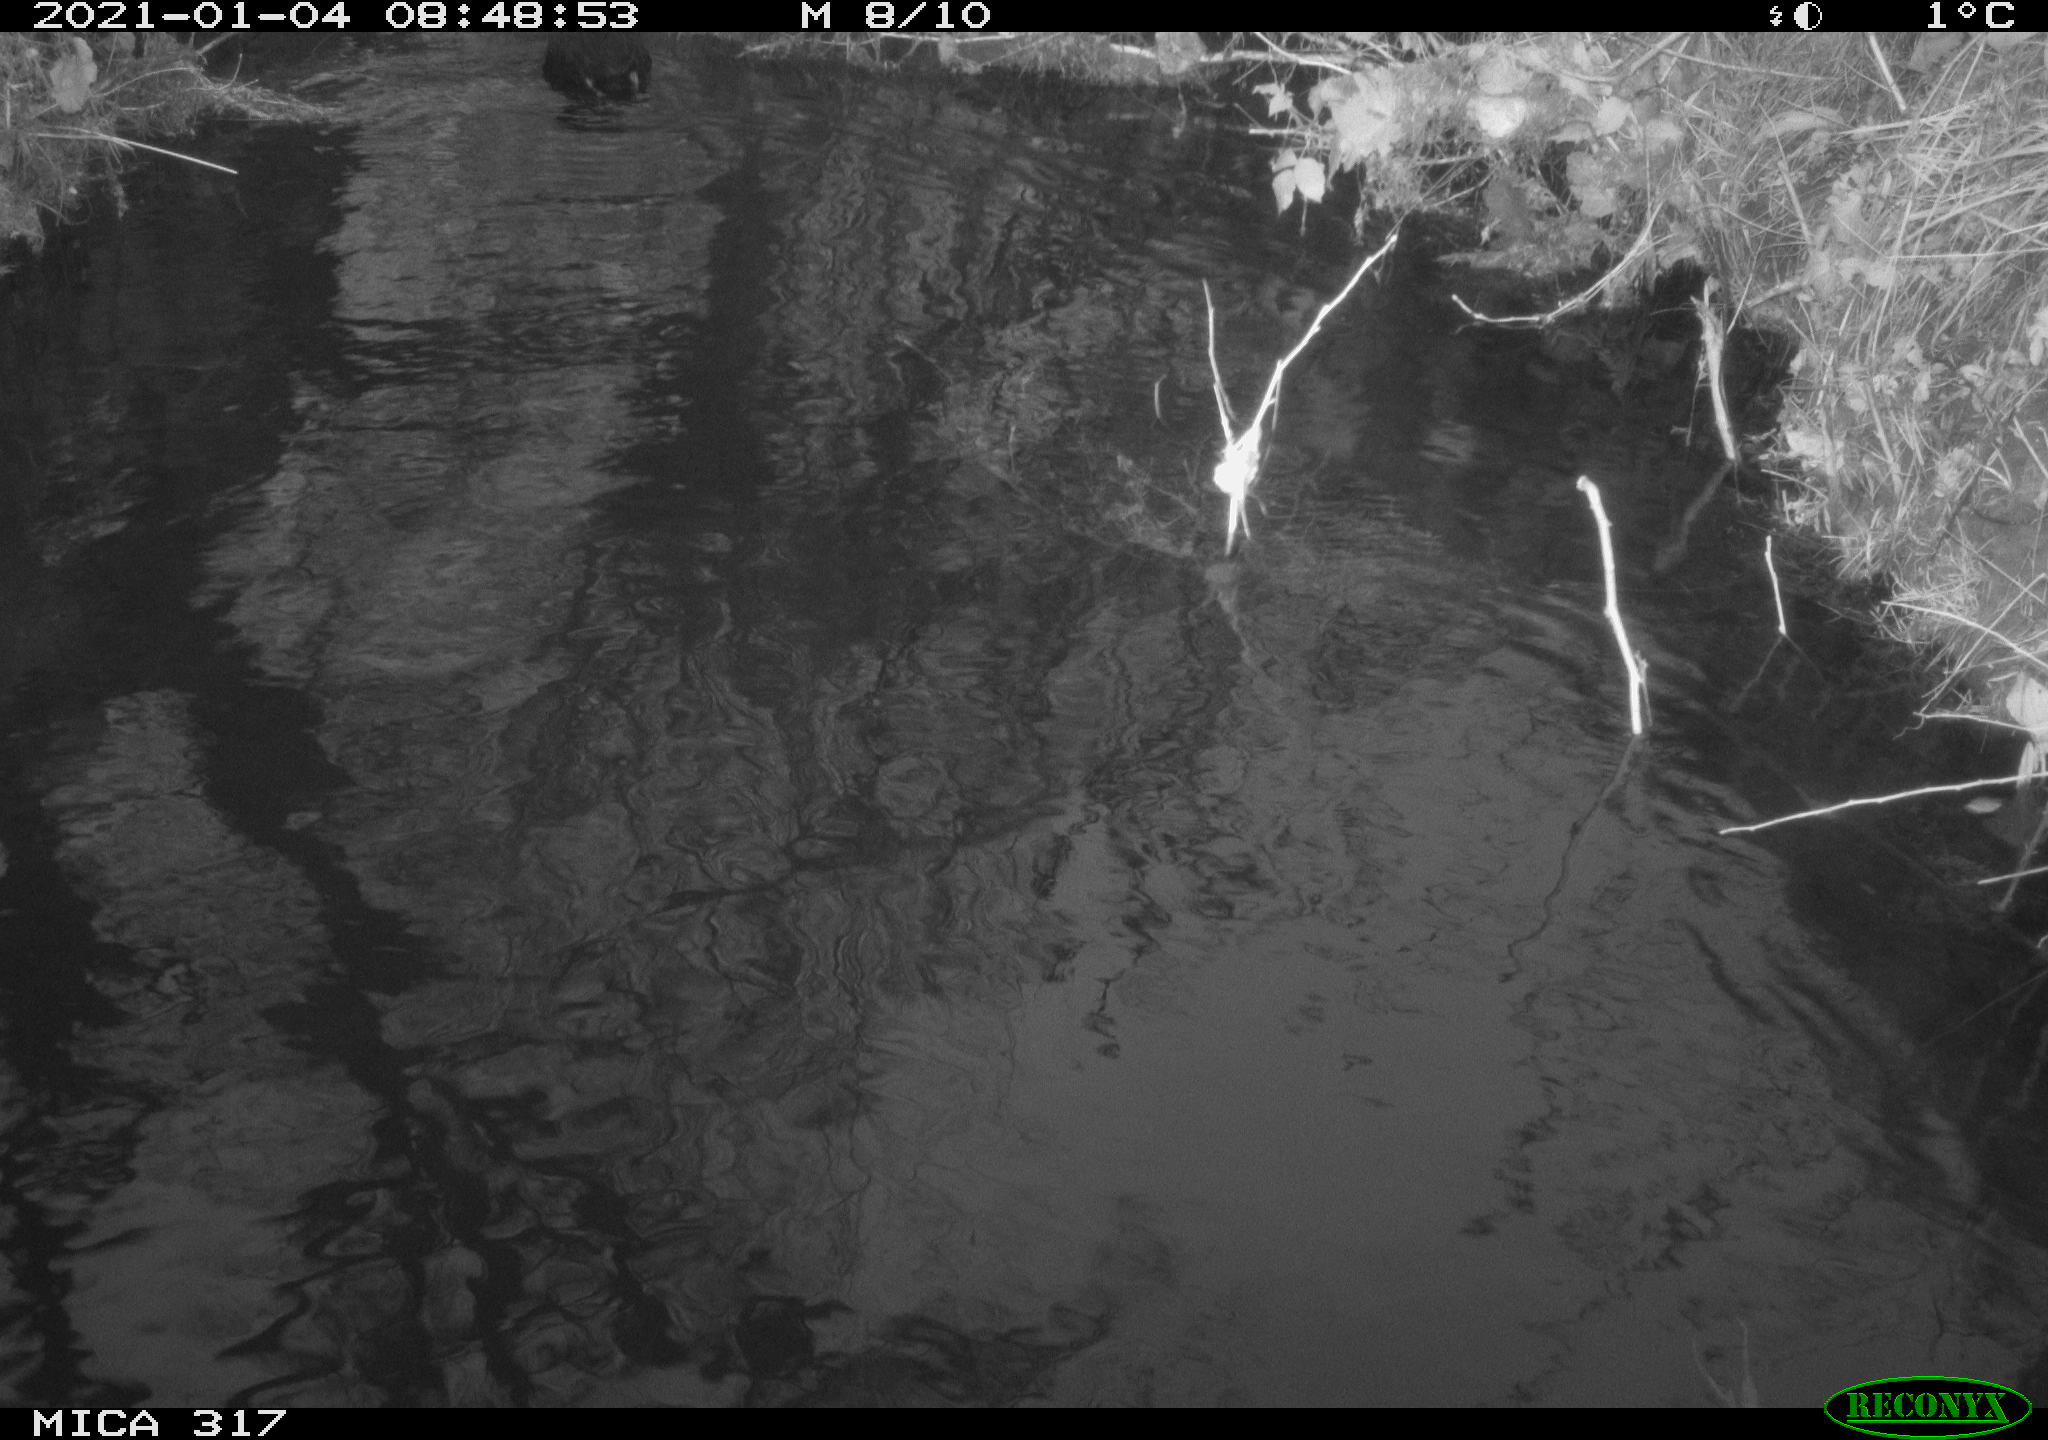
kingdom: Animalia
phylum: Chordata
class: Aves
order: Gruiformes
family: Rallidae
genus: Fulica
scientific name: Fulica atra
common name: Eurasian coot
